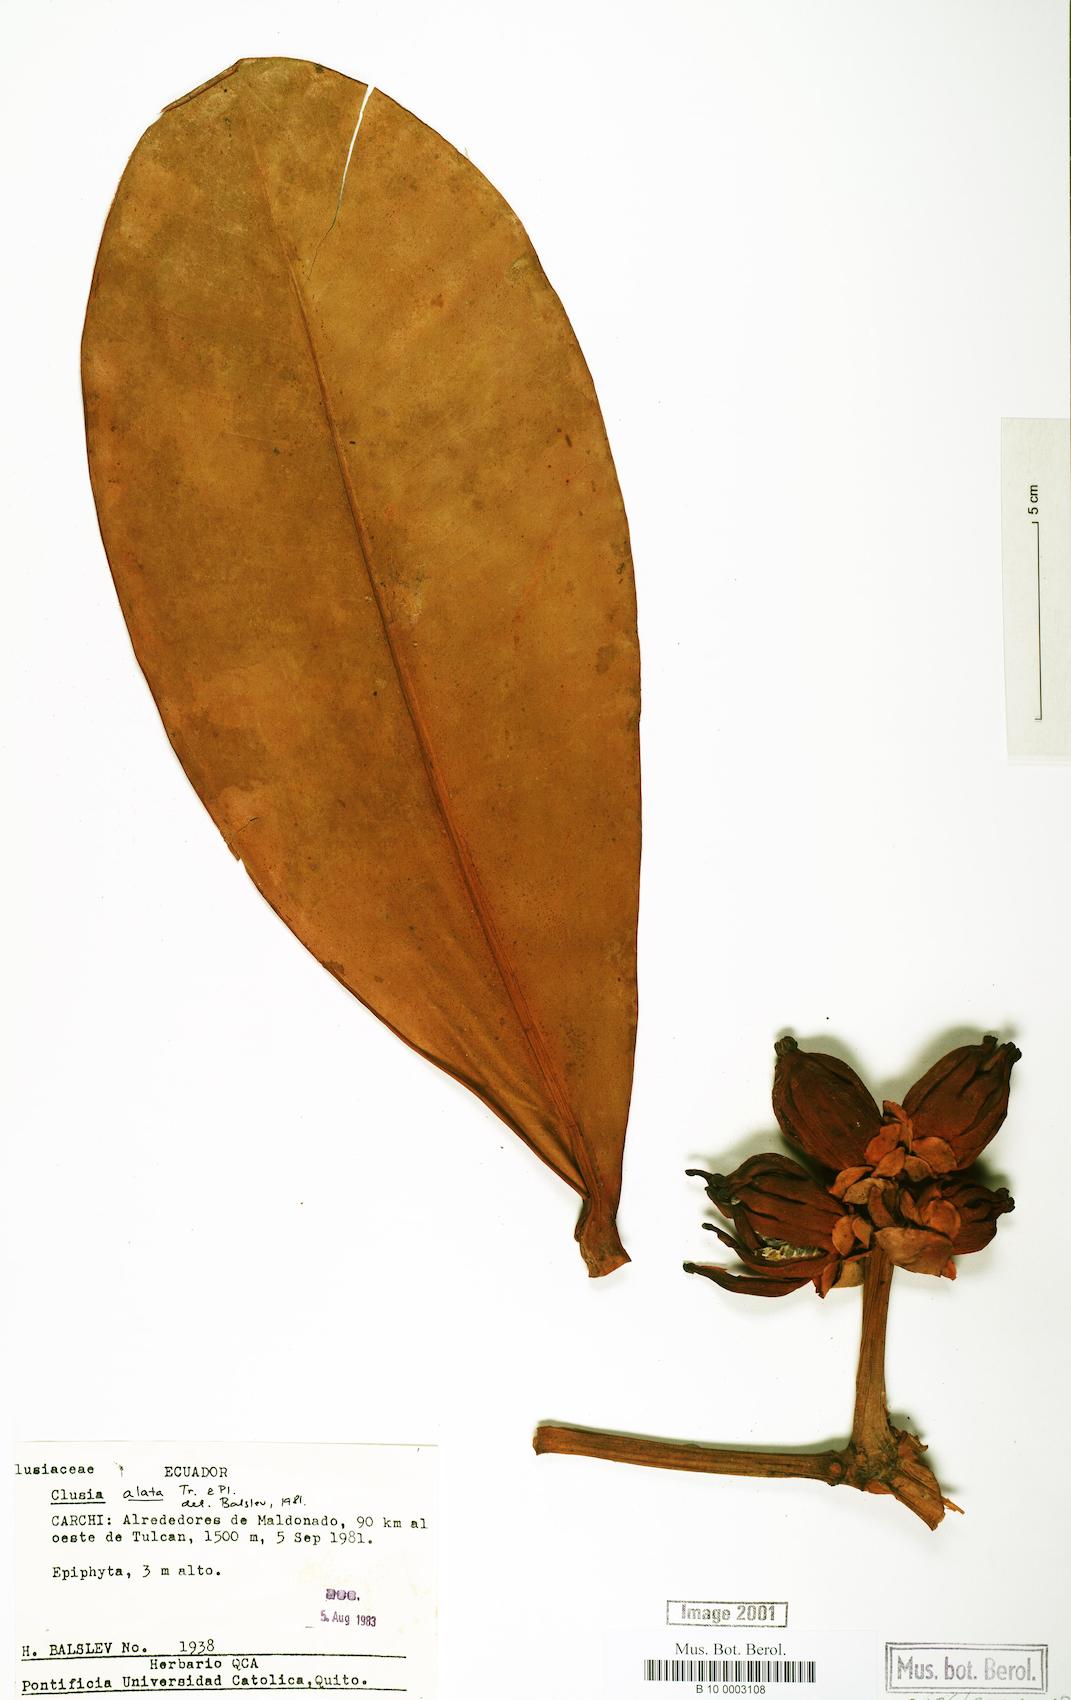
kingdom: Plantae
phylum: Tracheophyta
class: Magnoliopsida
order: Malpighiales
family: Clusiaceae
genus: Clusia
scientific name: Clusia alata
